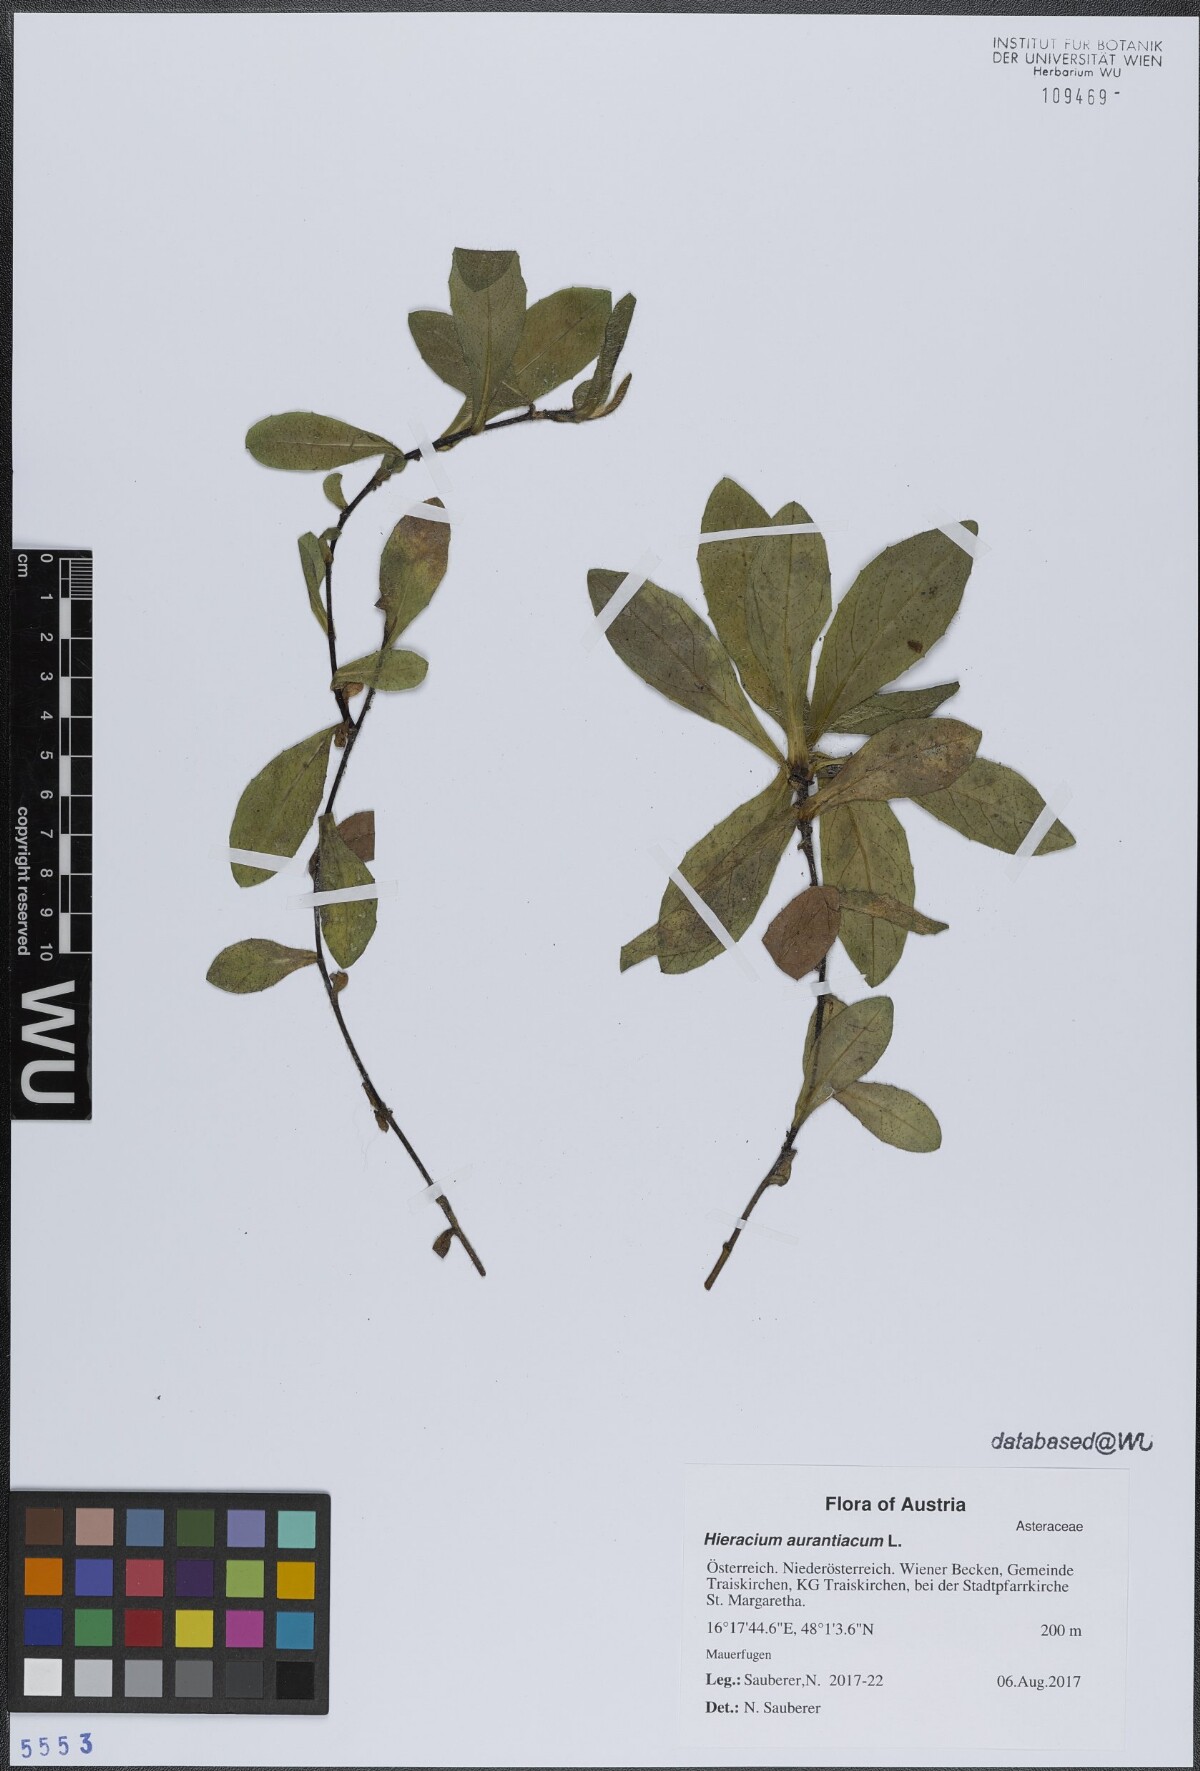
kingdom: Plantae
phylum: Tracheophyta
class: Magnoliopsida
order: Asterales
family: Asteraceae
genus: Pilosella
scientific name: Pilosella aurantiaca
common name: Fox-and-cubs
